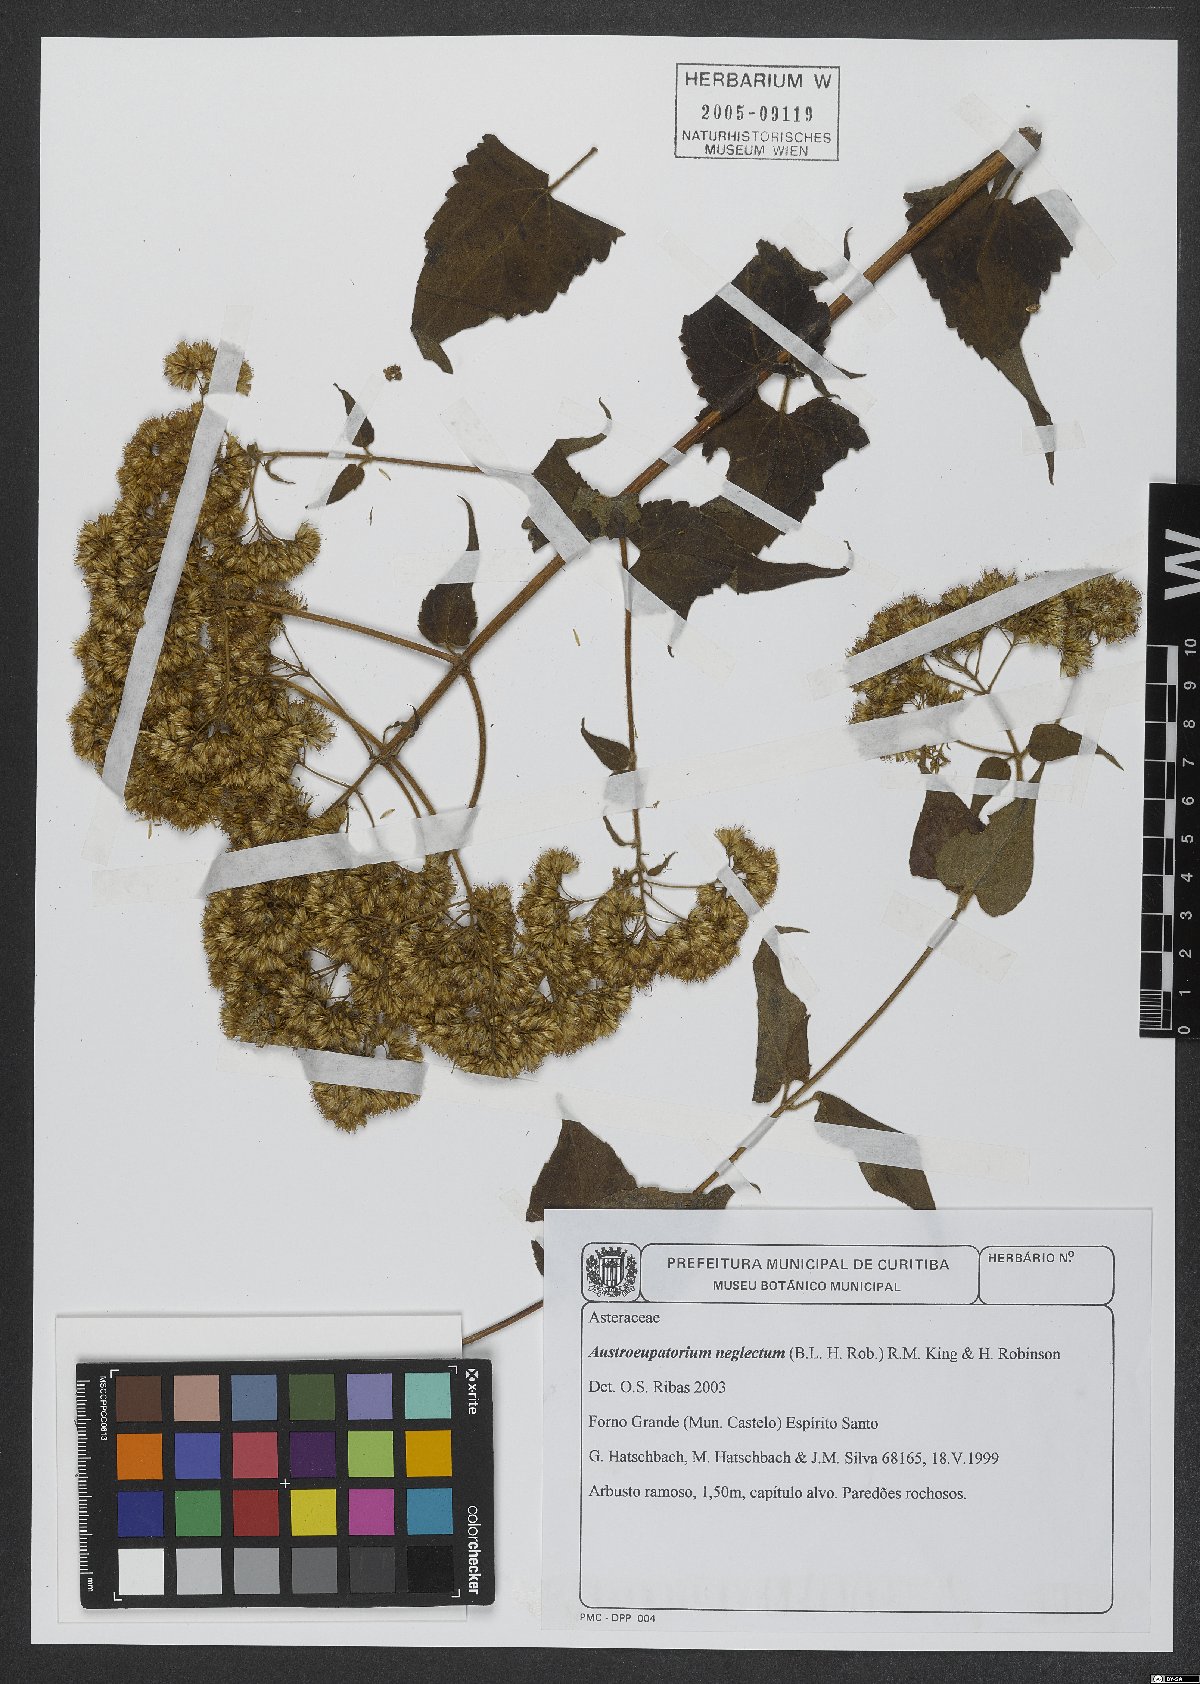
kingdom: Plantae
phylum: Tracheophyta
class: Magnoliopsida
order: Asterales
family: Asteraceae
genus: Austroeupatorium
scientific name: Austroeupatorium neglectum
